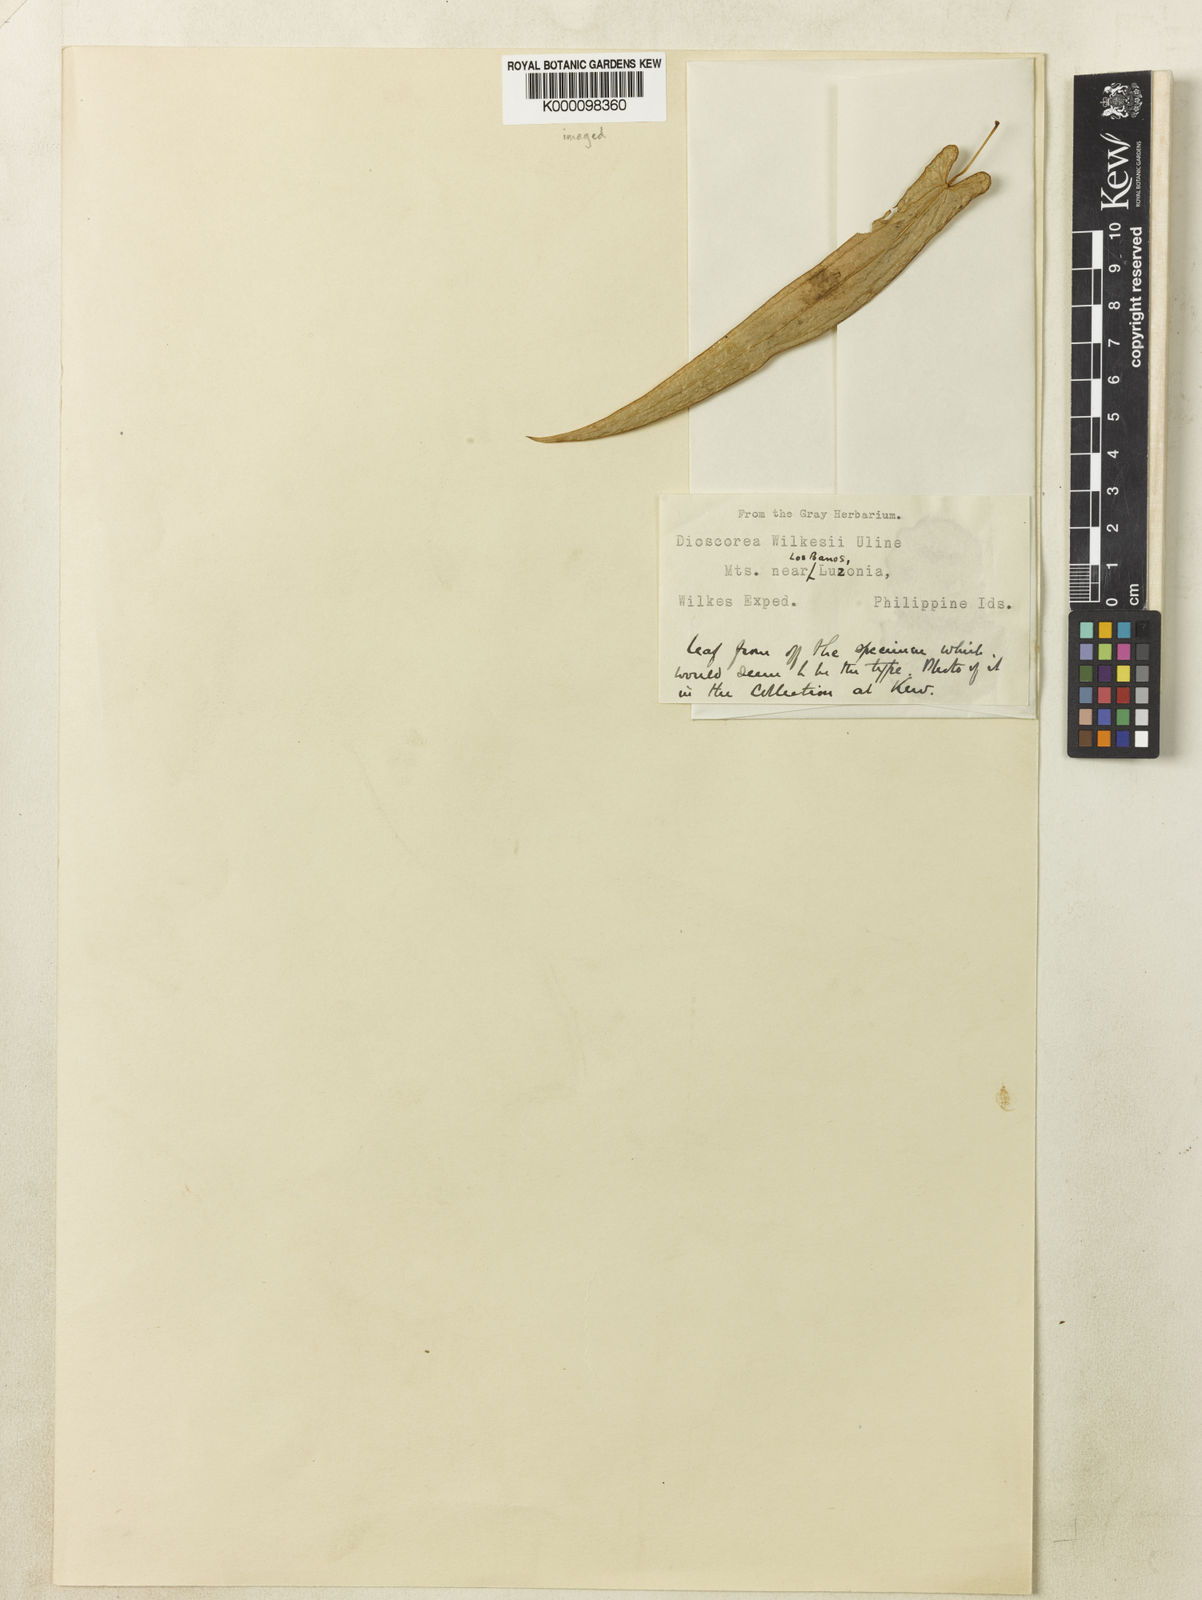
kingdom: Plantae
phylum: Tracheophyta
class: Liliopsida
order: Dioscoreales
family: Dioscoreaceae
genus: Dioscorea
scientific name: Dioscorea loheri
